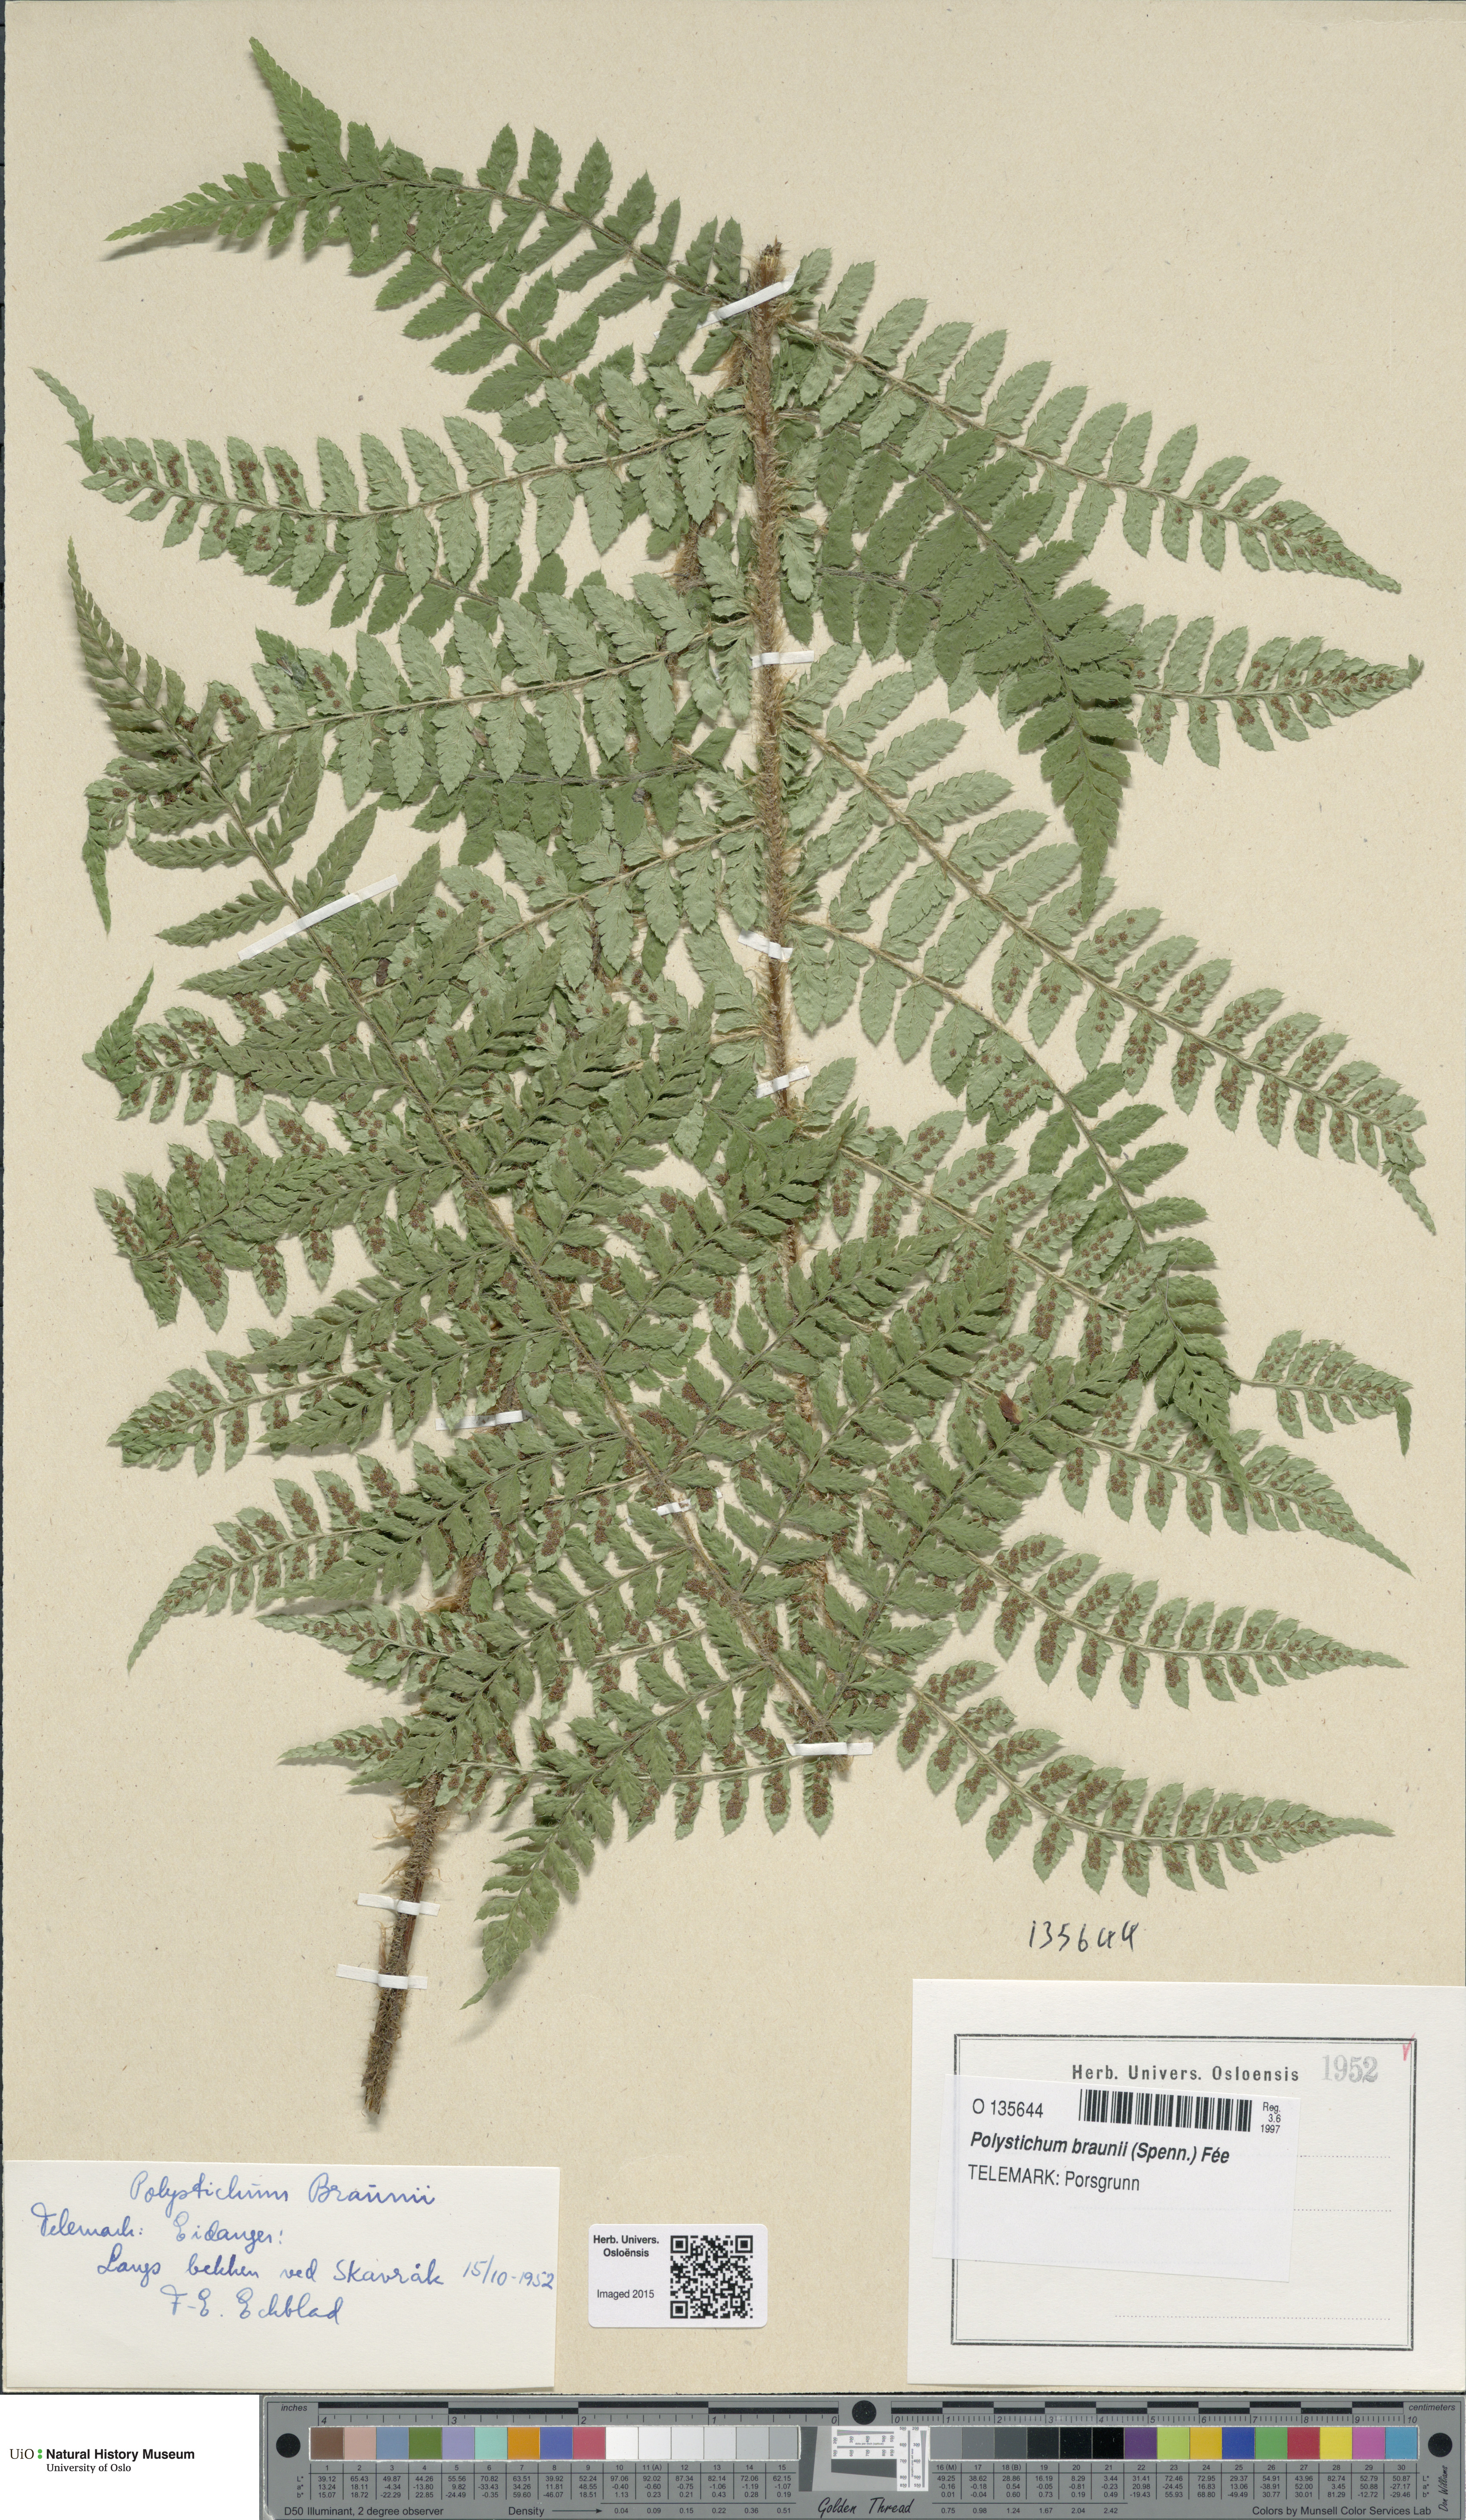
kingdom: Plantae
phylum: Tracheophyta
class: Polypodiopsida
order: Polypodiales
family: Dryopteridaceae
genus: Polystichum
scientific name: Polystichum braunii
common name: Braun's holly fern
